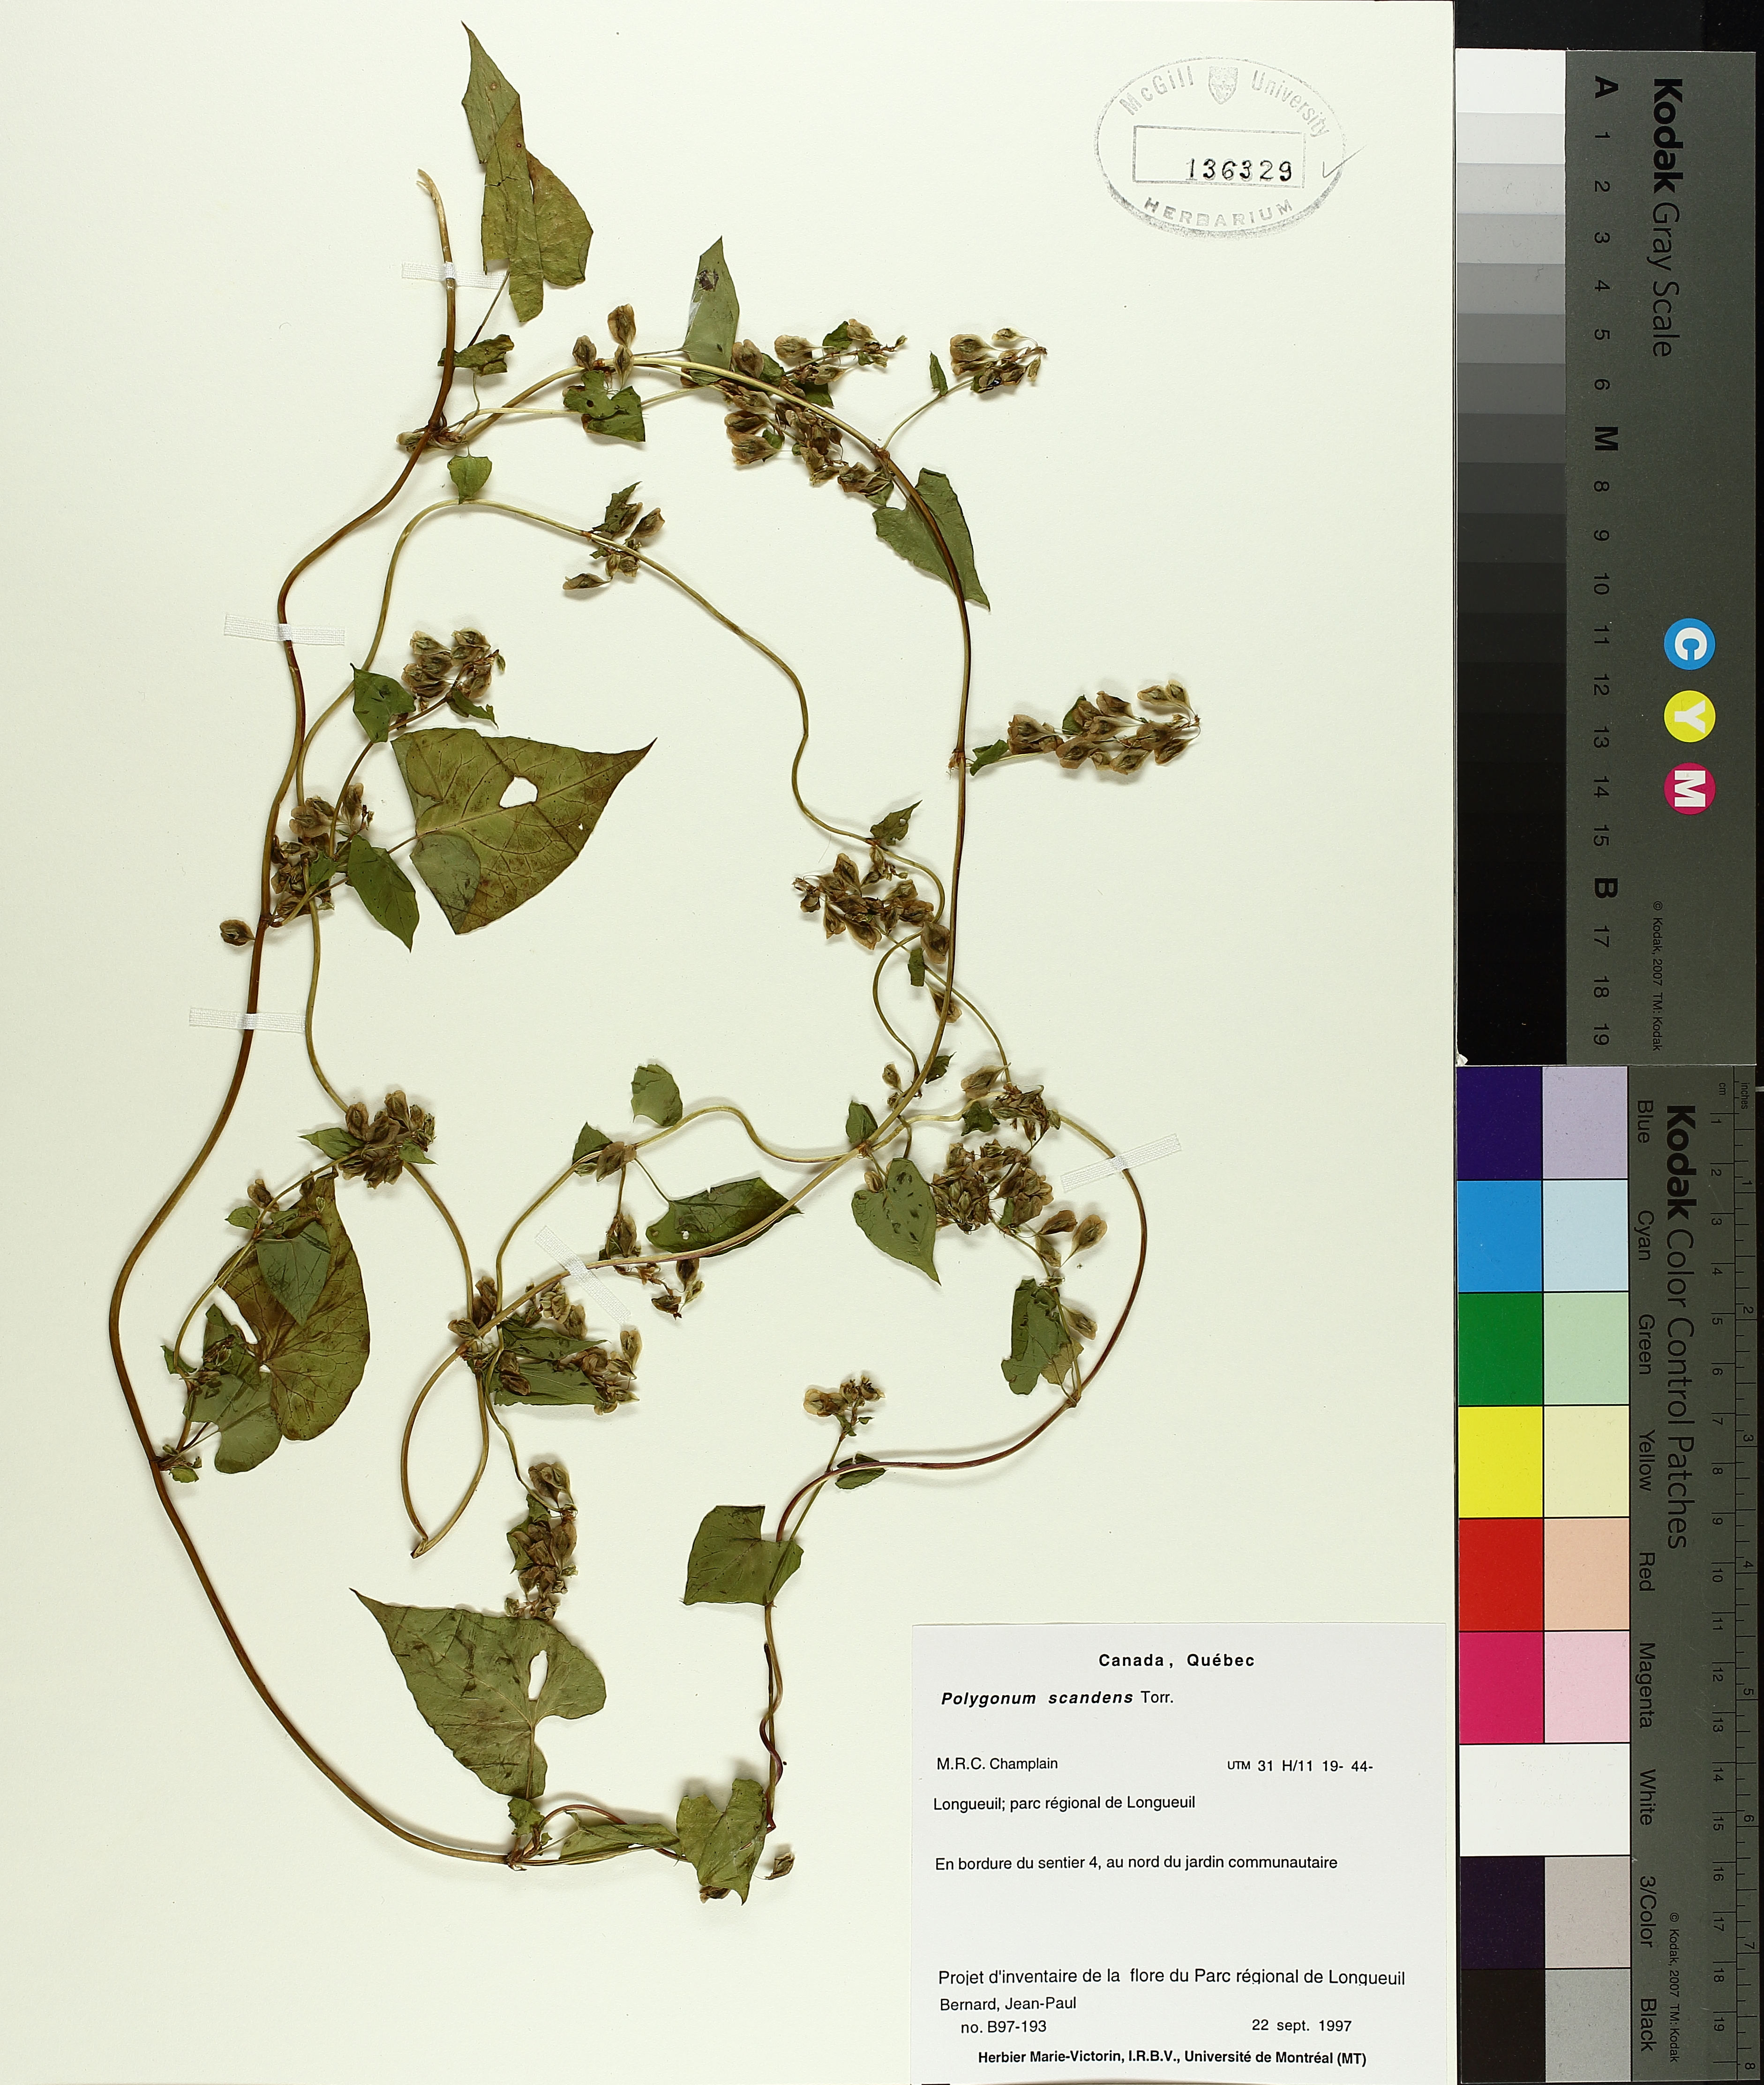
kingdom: Plantae
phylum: Tracheophyta
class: Magnoliopsida
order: Caryophyllales
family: Polygonaceae
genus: Fallopia
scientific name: Fallopia scandens
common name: Climbing false buckwheat
